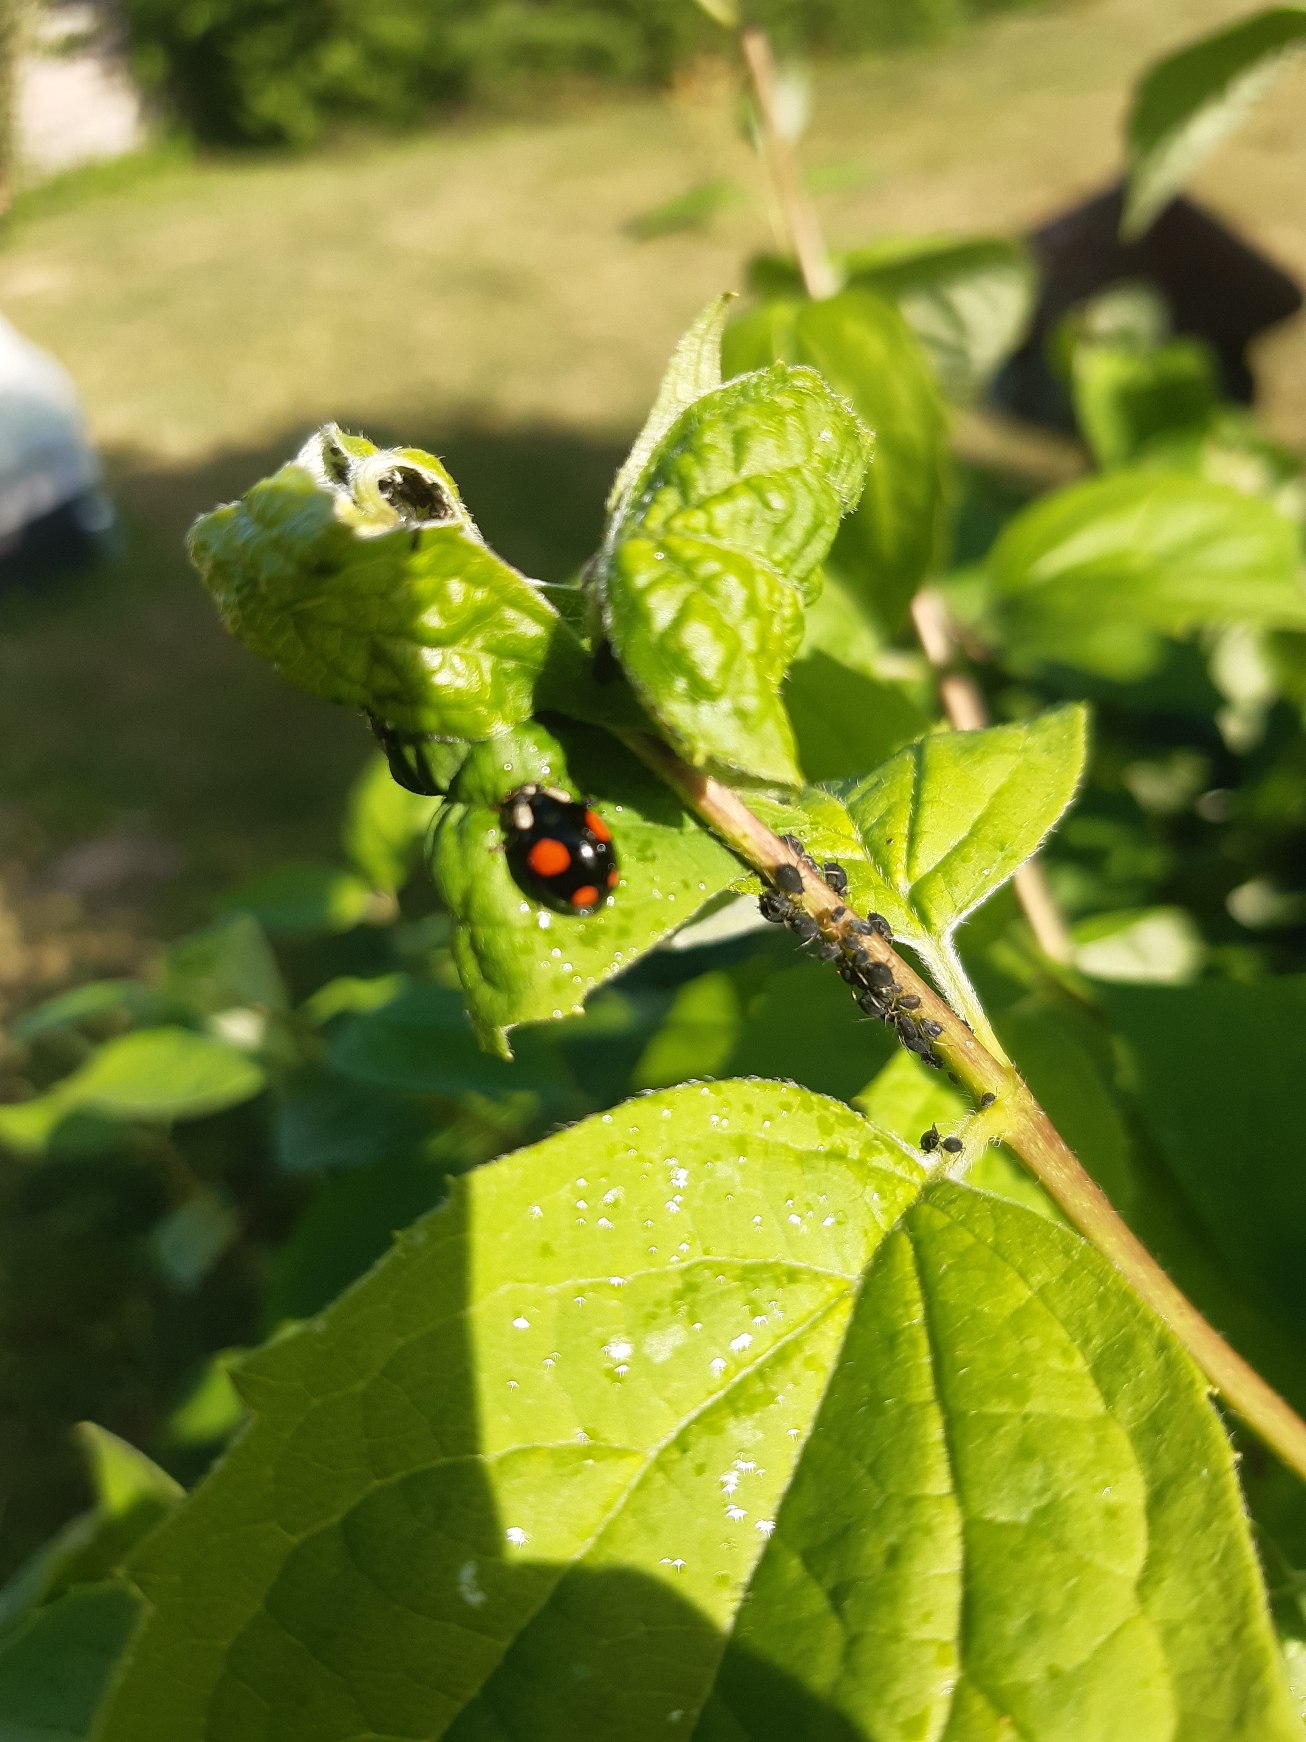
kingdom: Animalia
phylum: Arthropoda
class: Insecta
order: Coleoptera
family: Coccinellidae
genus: Harmonia
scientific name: Harmonia axyridis
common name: Harlekinmariehøne
